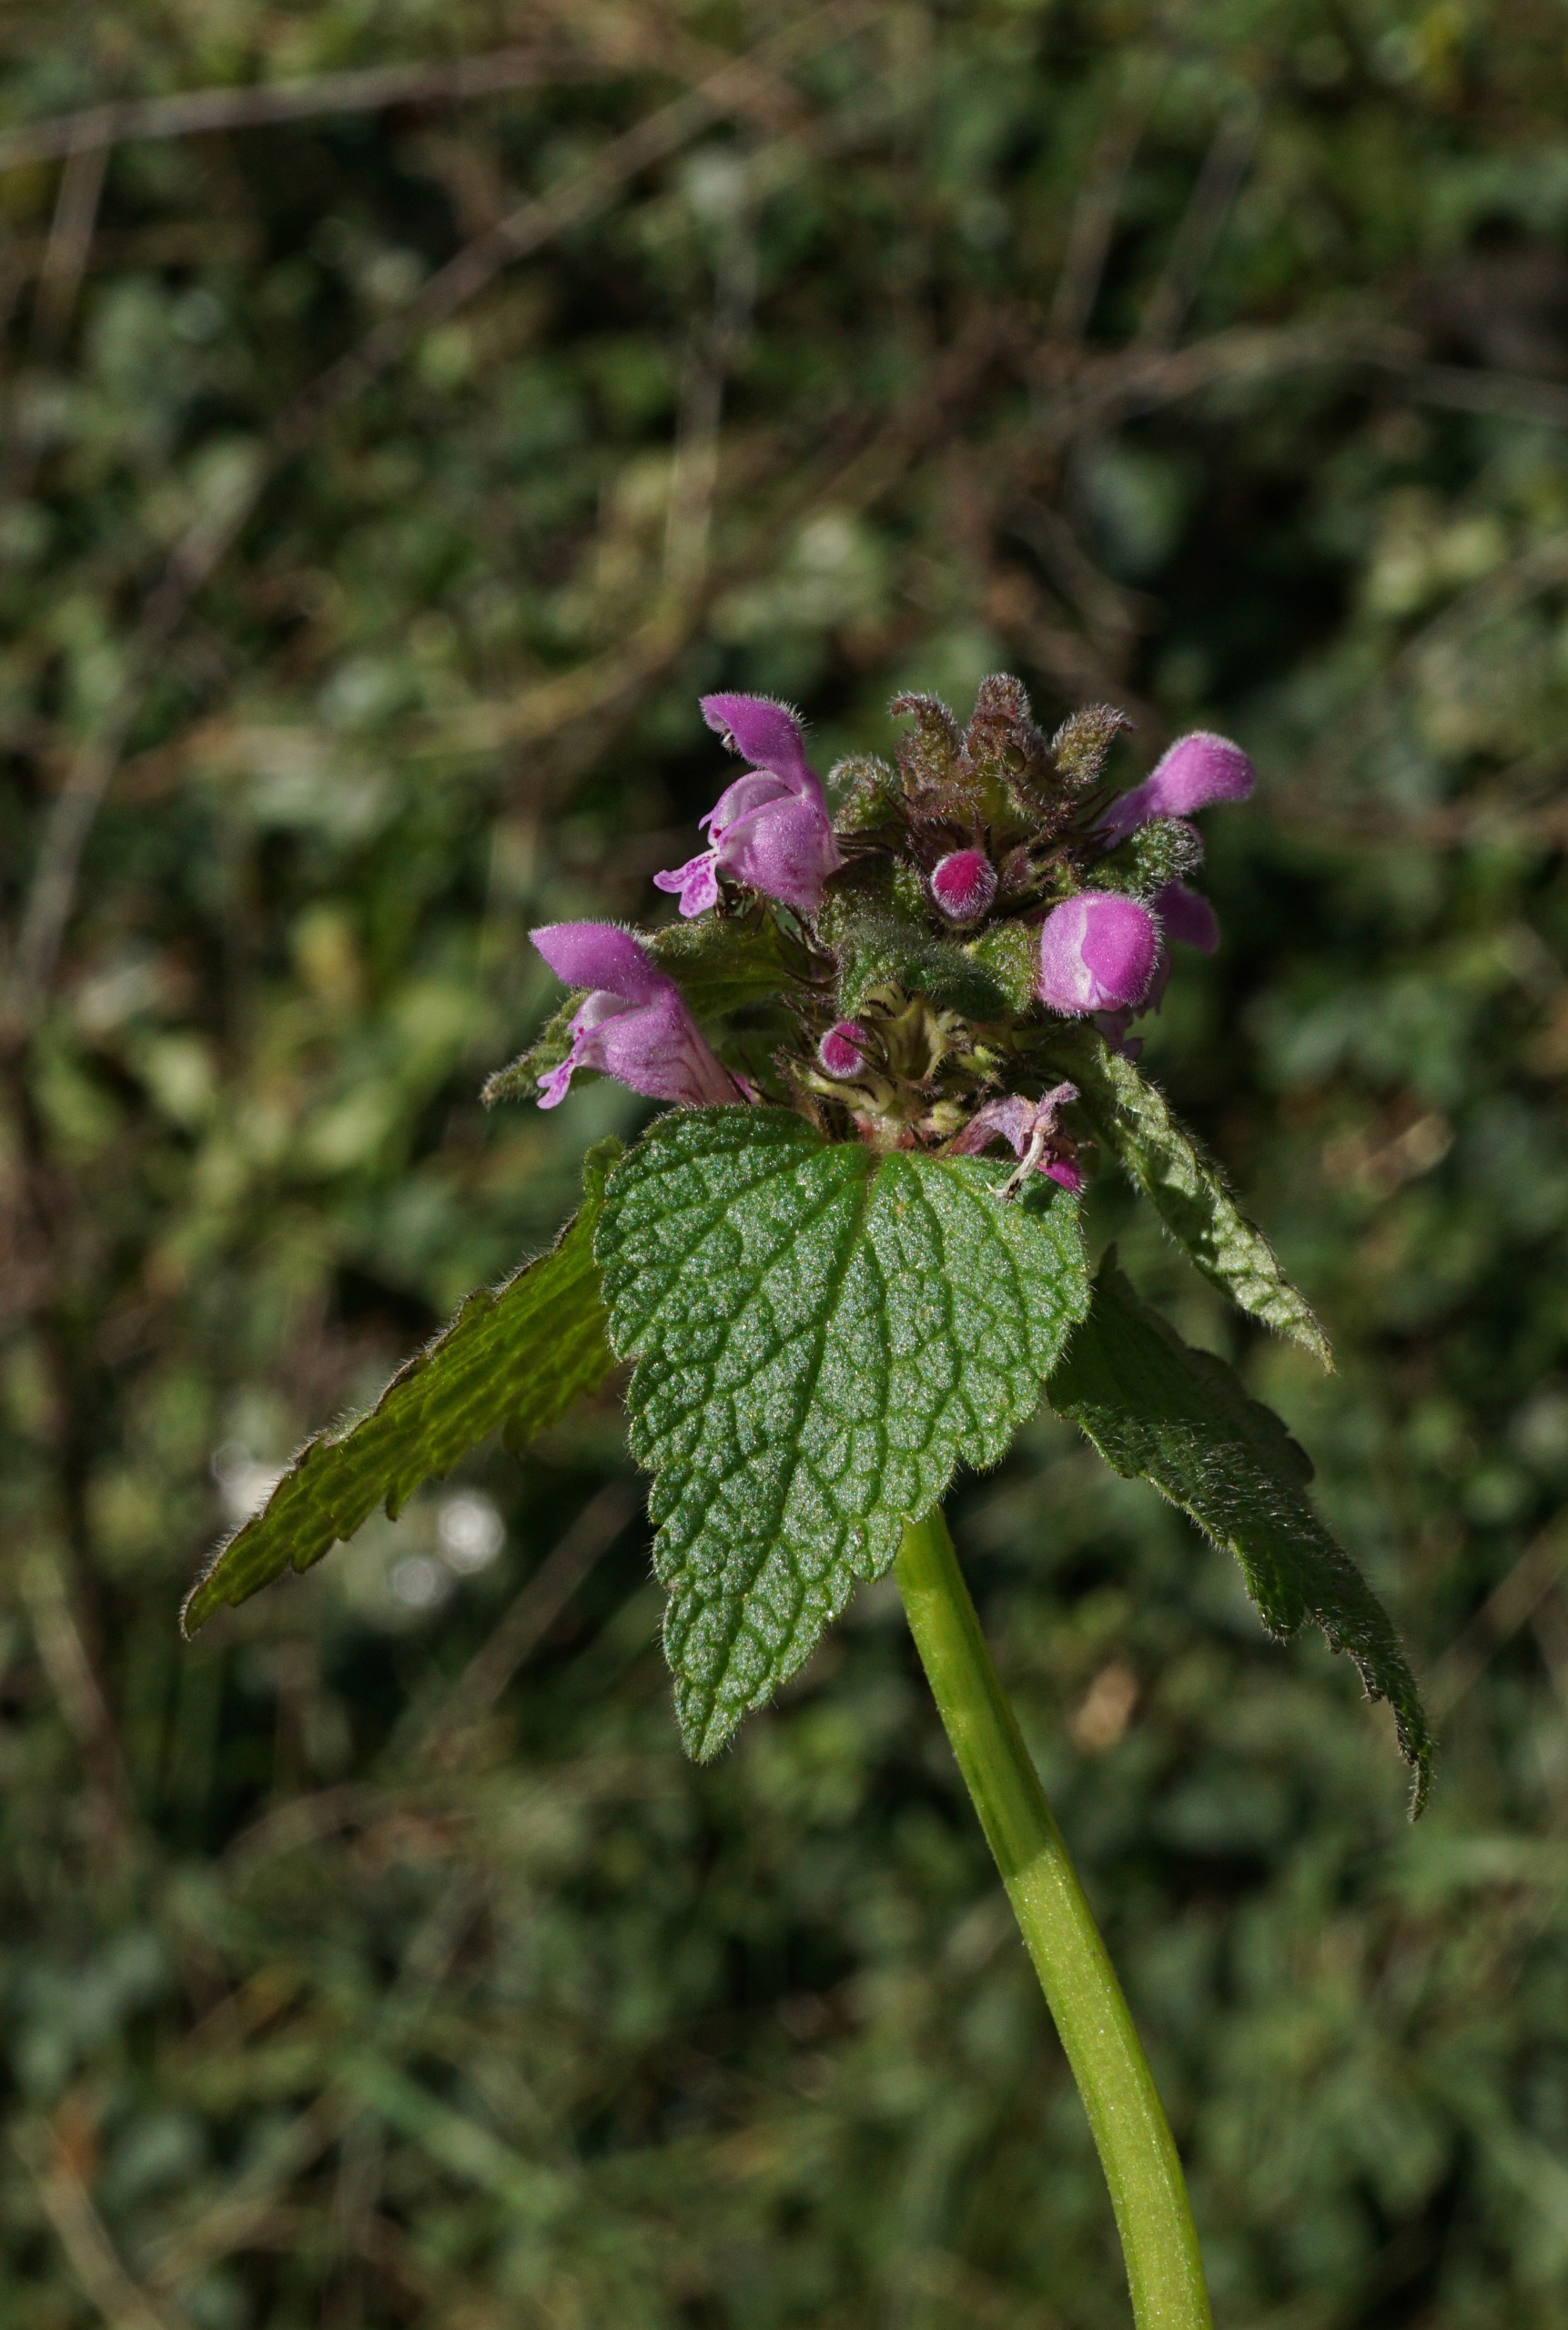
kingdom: Plantae
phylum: Tracheophyta
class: Magnoliopsida
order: Lamiales
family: Lamiaceae
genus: Lamium
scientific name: Lamium purpureum
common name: Rød tvetand
